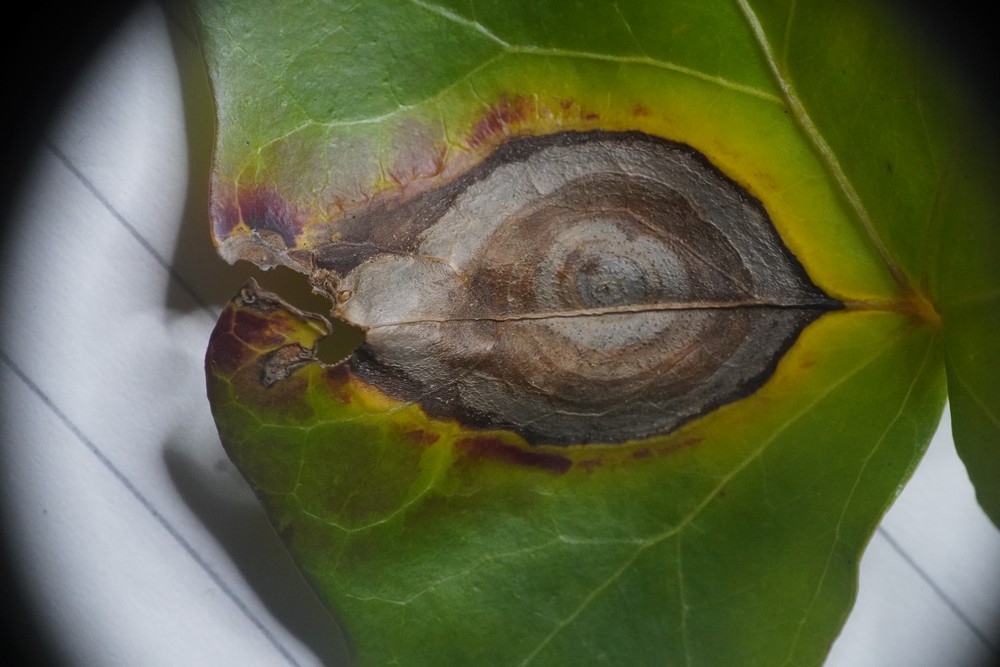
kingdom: Fungi
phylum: Ascomycota
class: Dothideomycetes
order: Pleosporales
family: Didymellaceae
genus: Boeremia
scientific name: Boeremia hedericola
